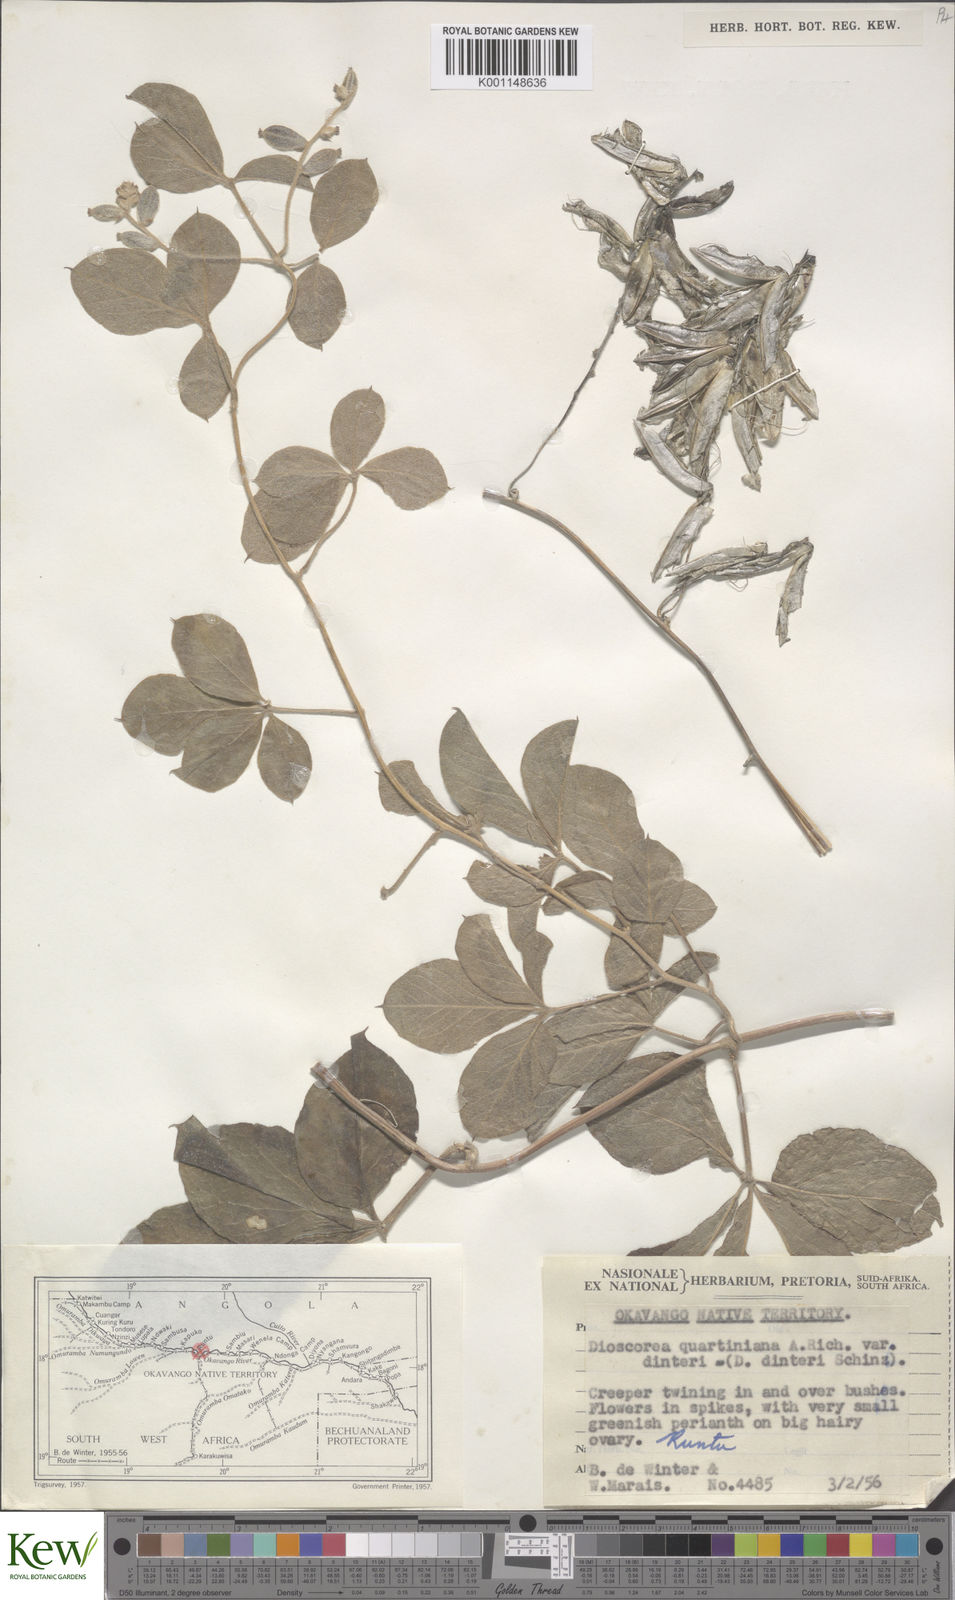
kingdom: Plantae
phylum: Tracheophyta
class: Liliopsida
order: Dioscoreales
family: Dioscoreaceae
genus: Dioscorea
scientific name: Dioscorea quartiniana
